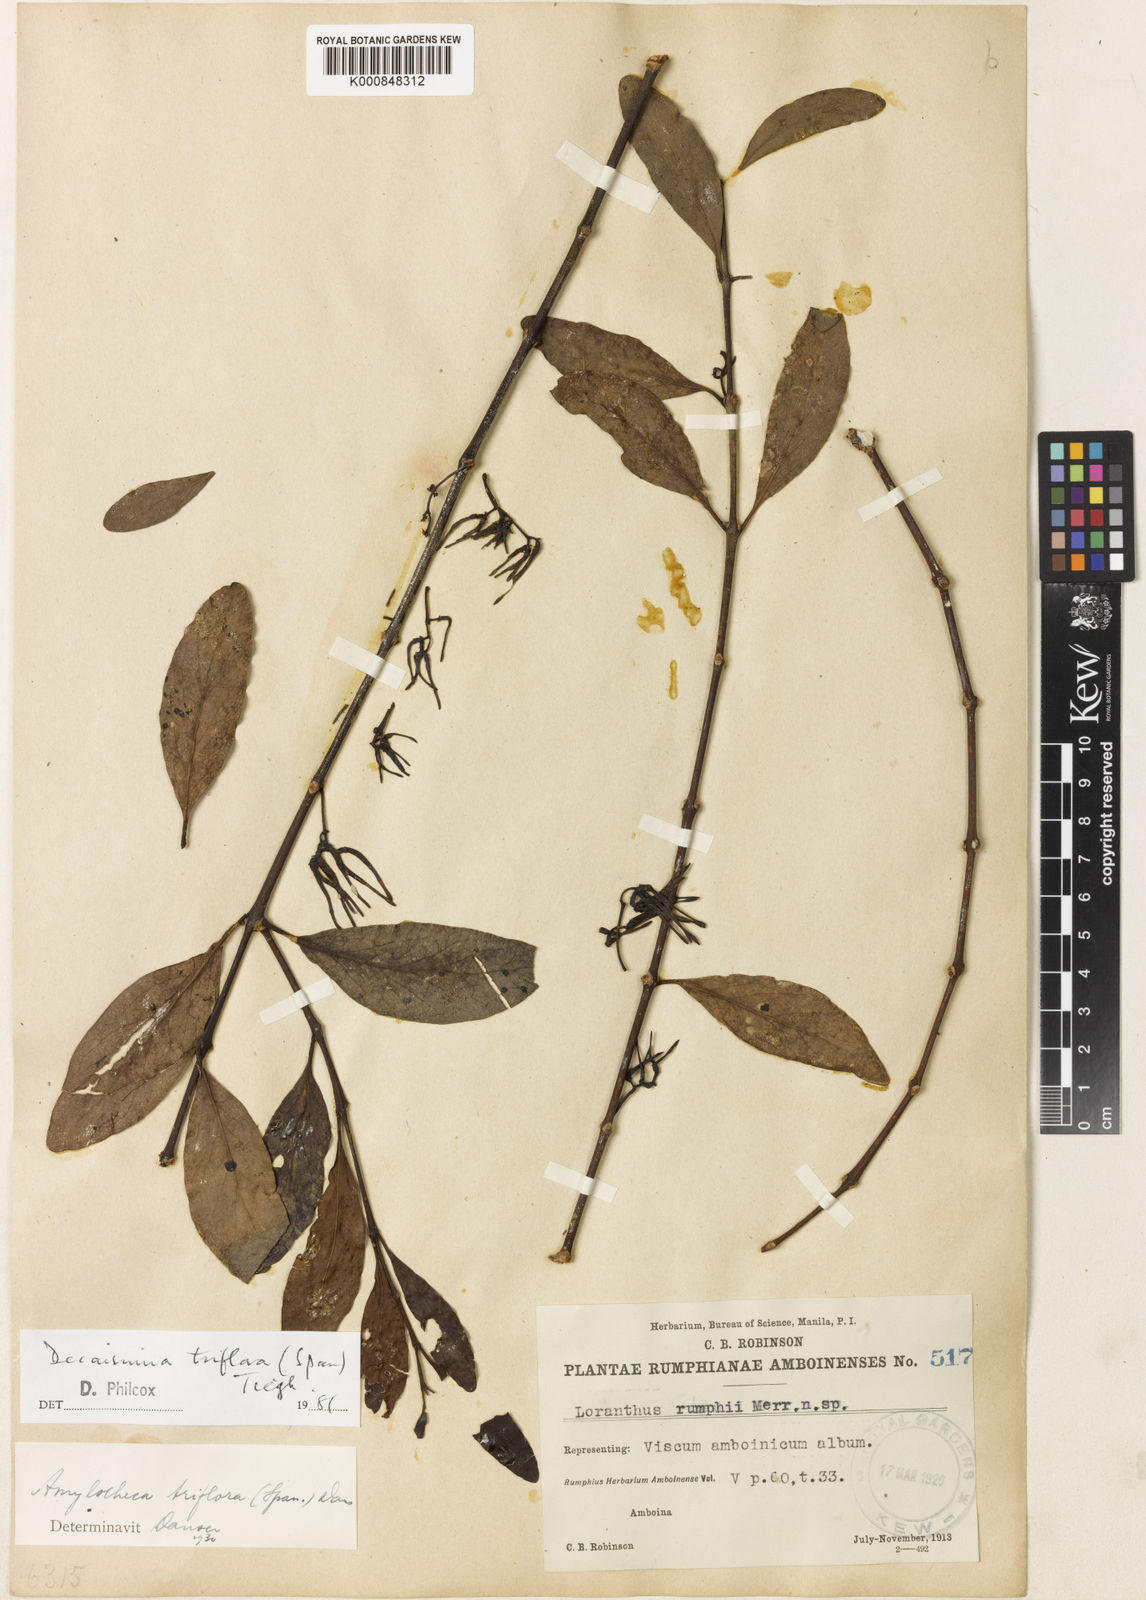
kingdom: Plantae
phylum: Tracheophyta
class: Magnoliopsida
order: Santalales
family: Loranthaceae
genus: Decaisnina
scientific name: Decaisnina triflora
